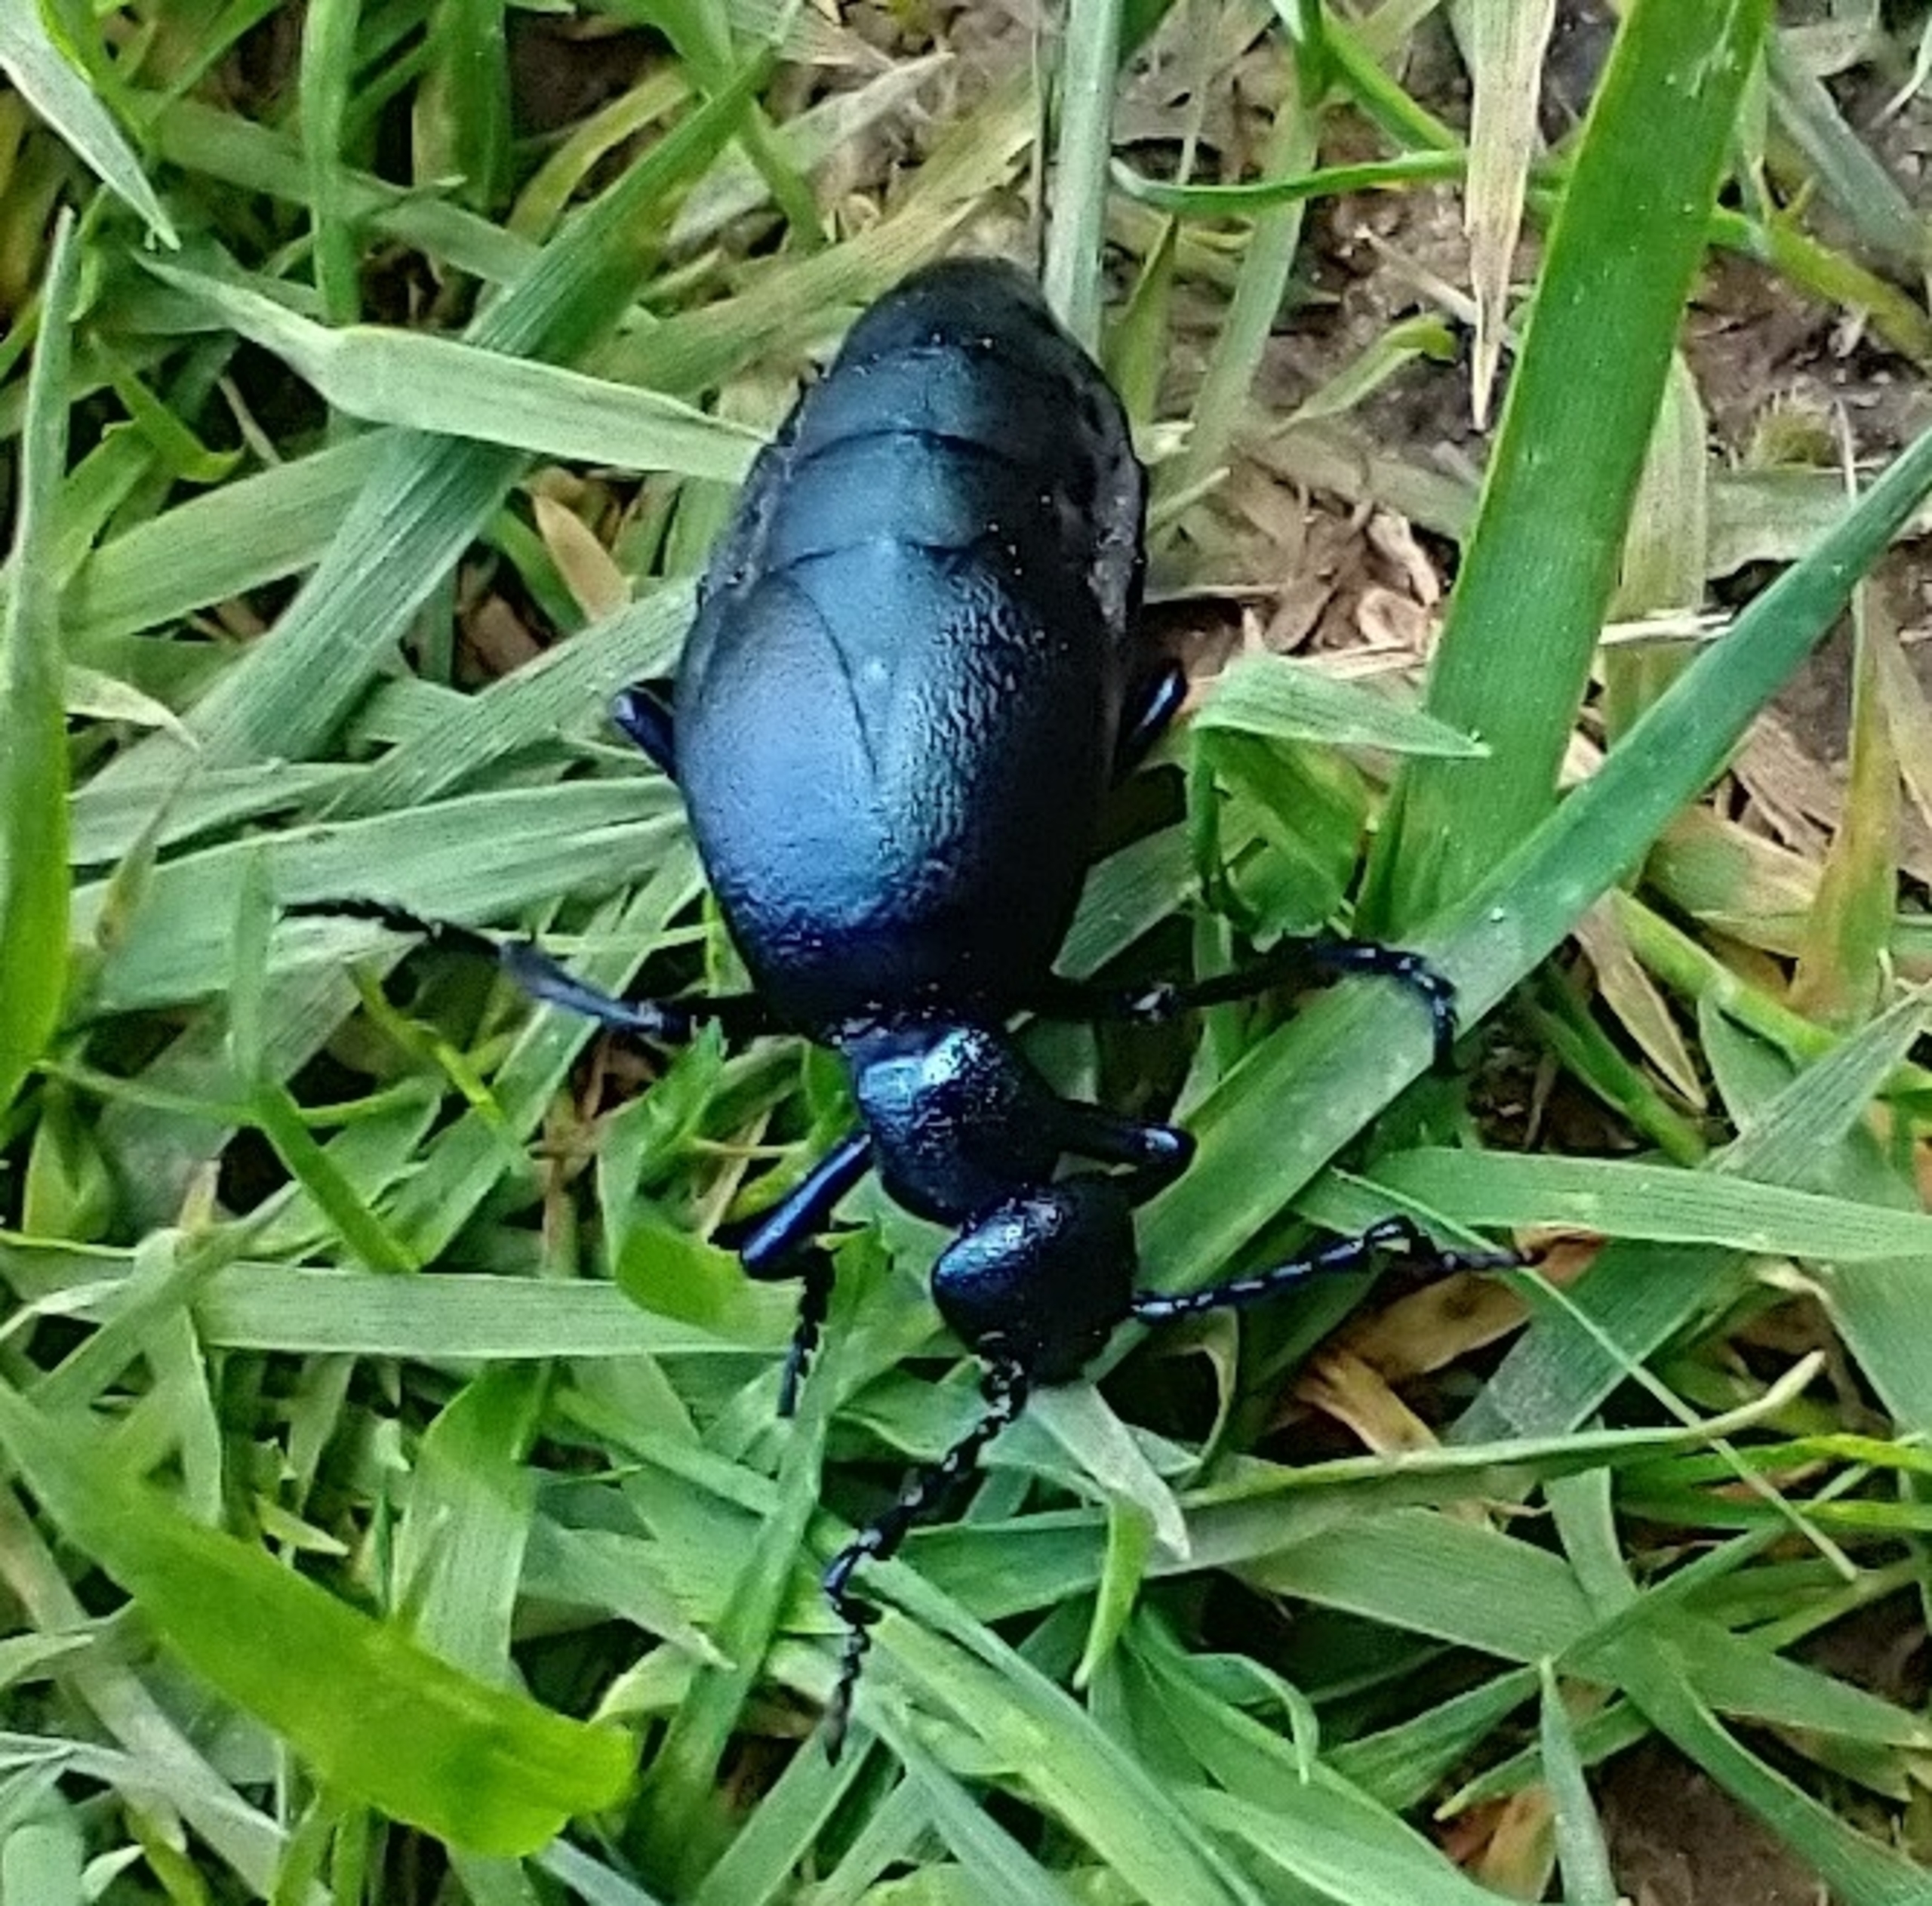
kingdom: Animalia
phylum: Arthropoda
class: Insecta
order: Coleoptera
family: Meloidae
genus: Meloe
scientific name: Meloe violaceus
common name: Blå oliebille
